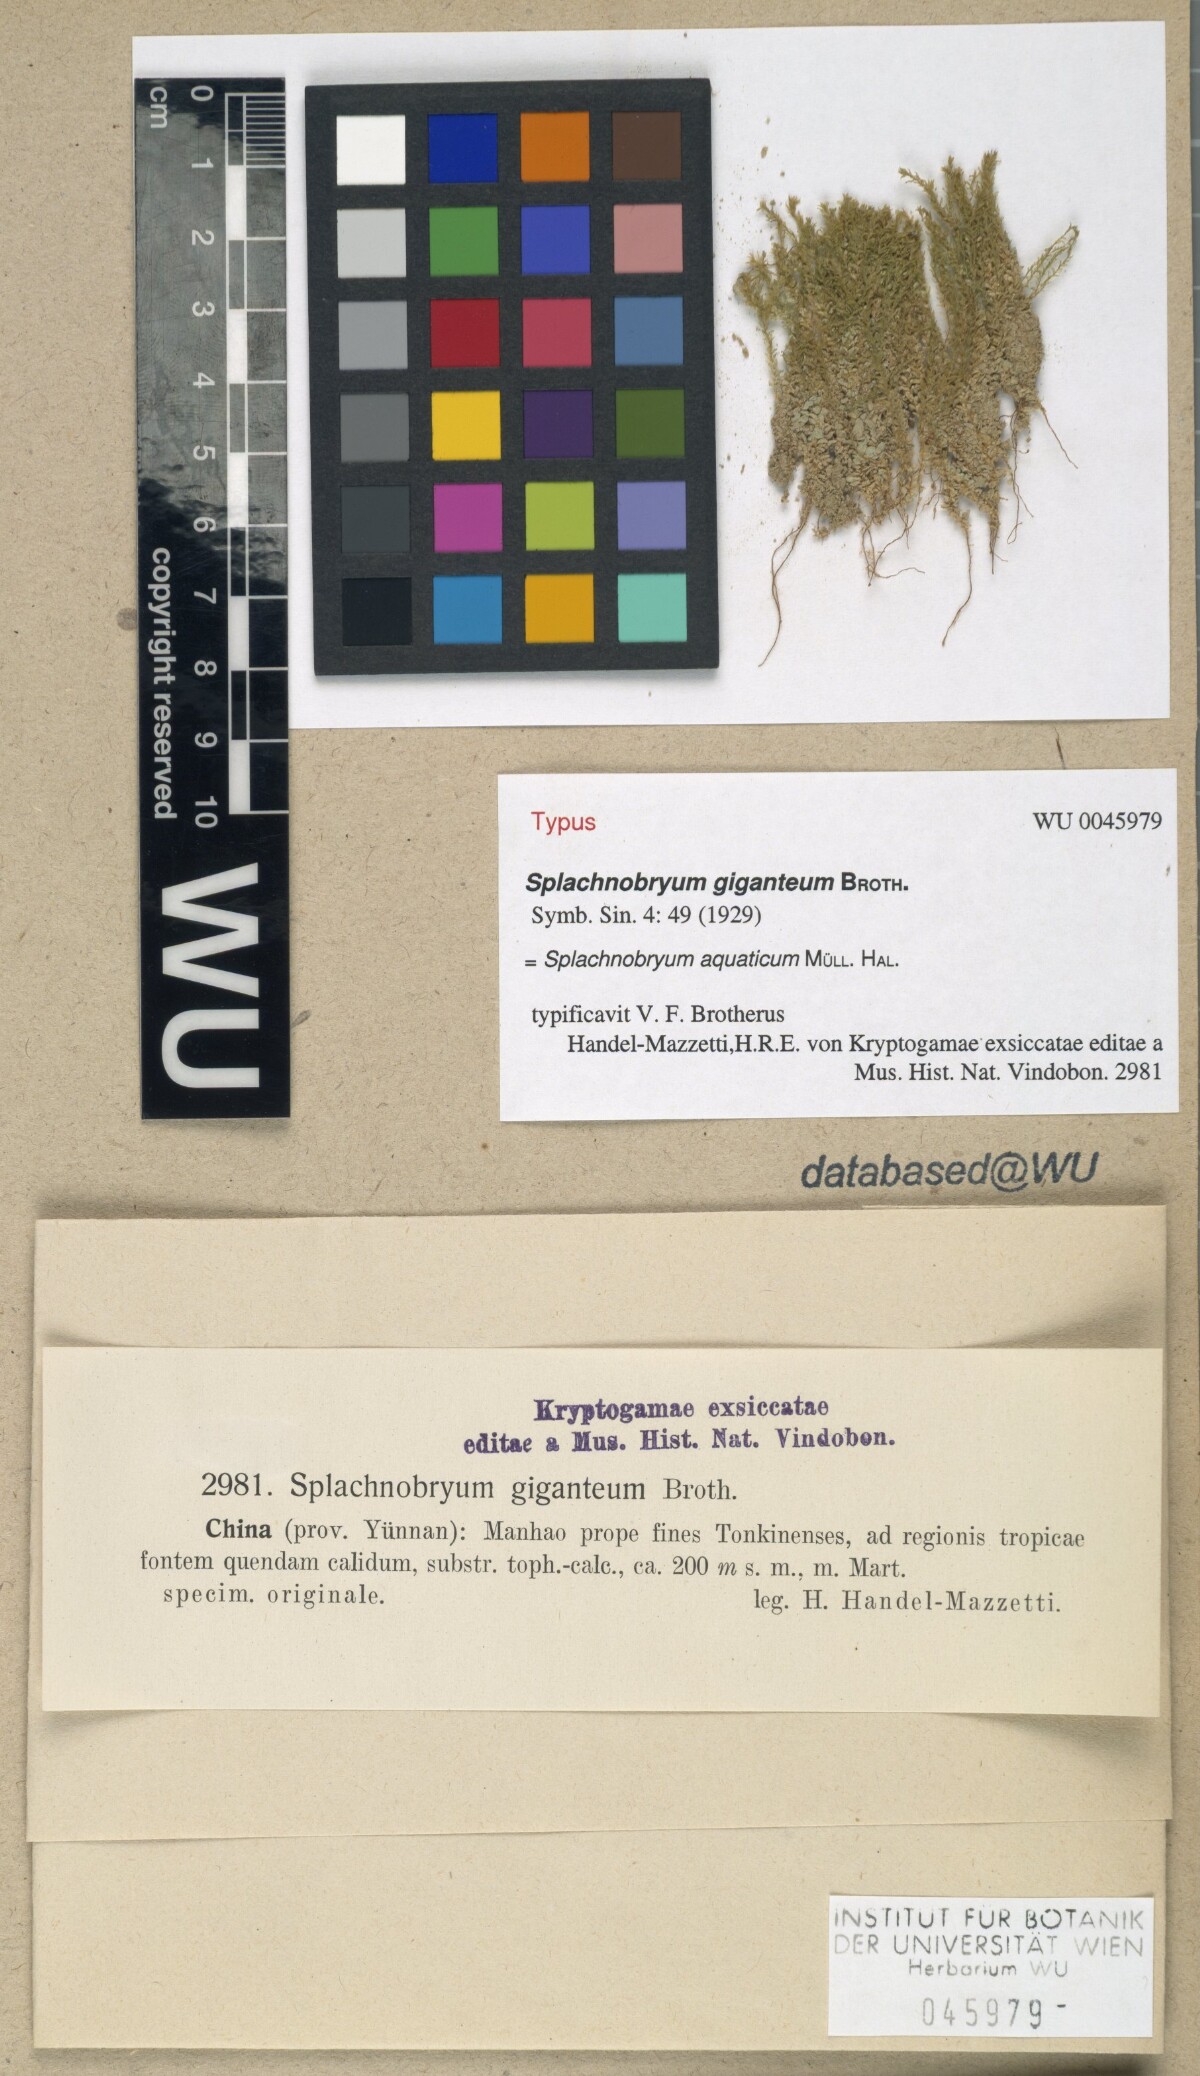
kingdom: Plantae
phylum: Bryophyta
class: Bryopsida
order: Pottiales
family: Splachnobryaceae
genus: Splachnobryum
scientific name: Splachnobryum aquaticum
